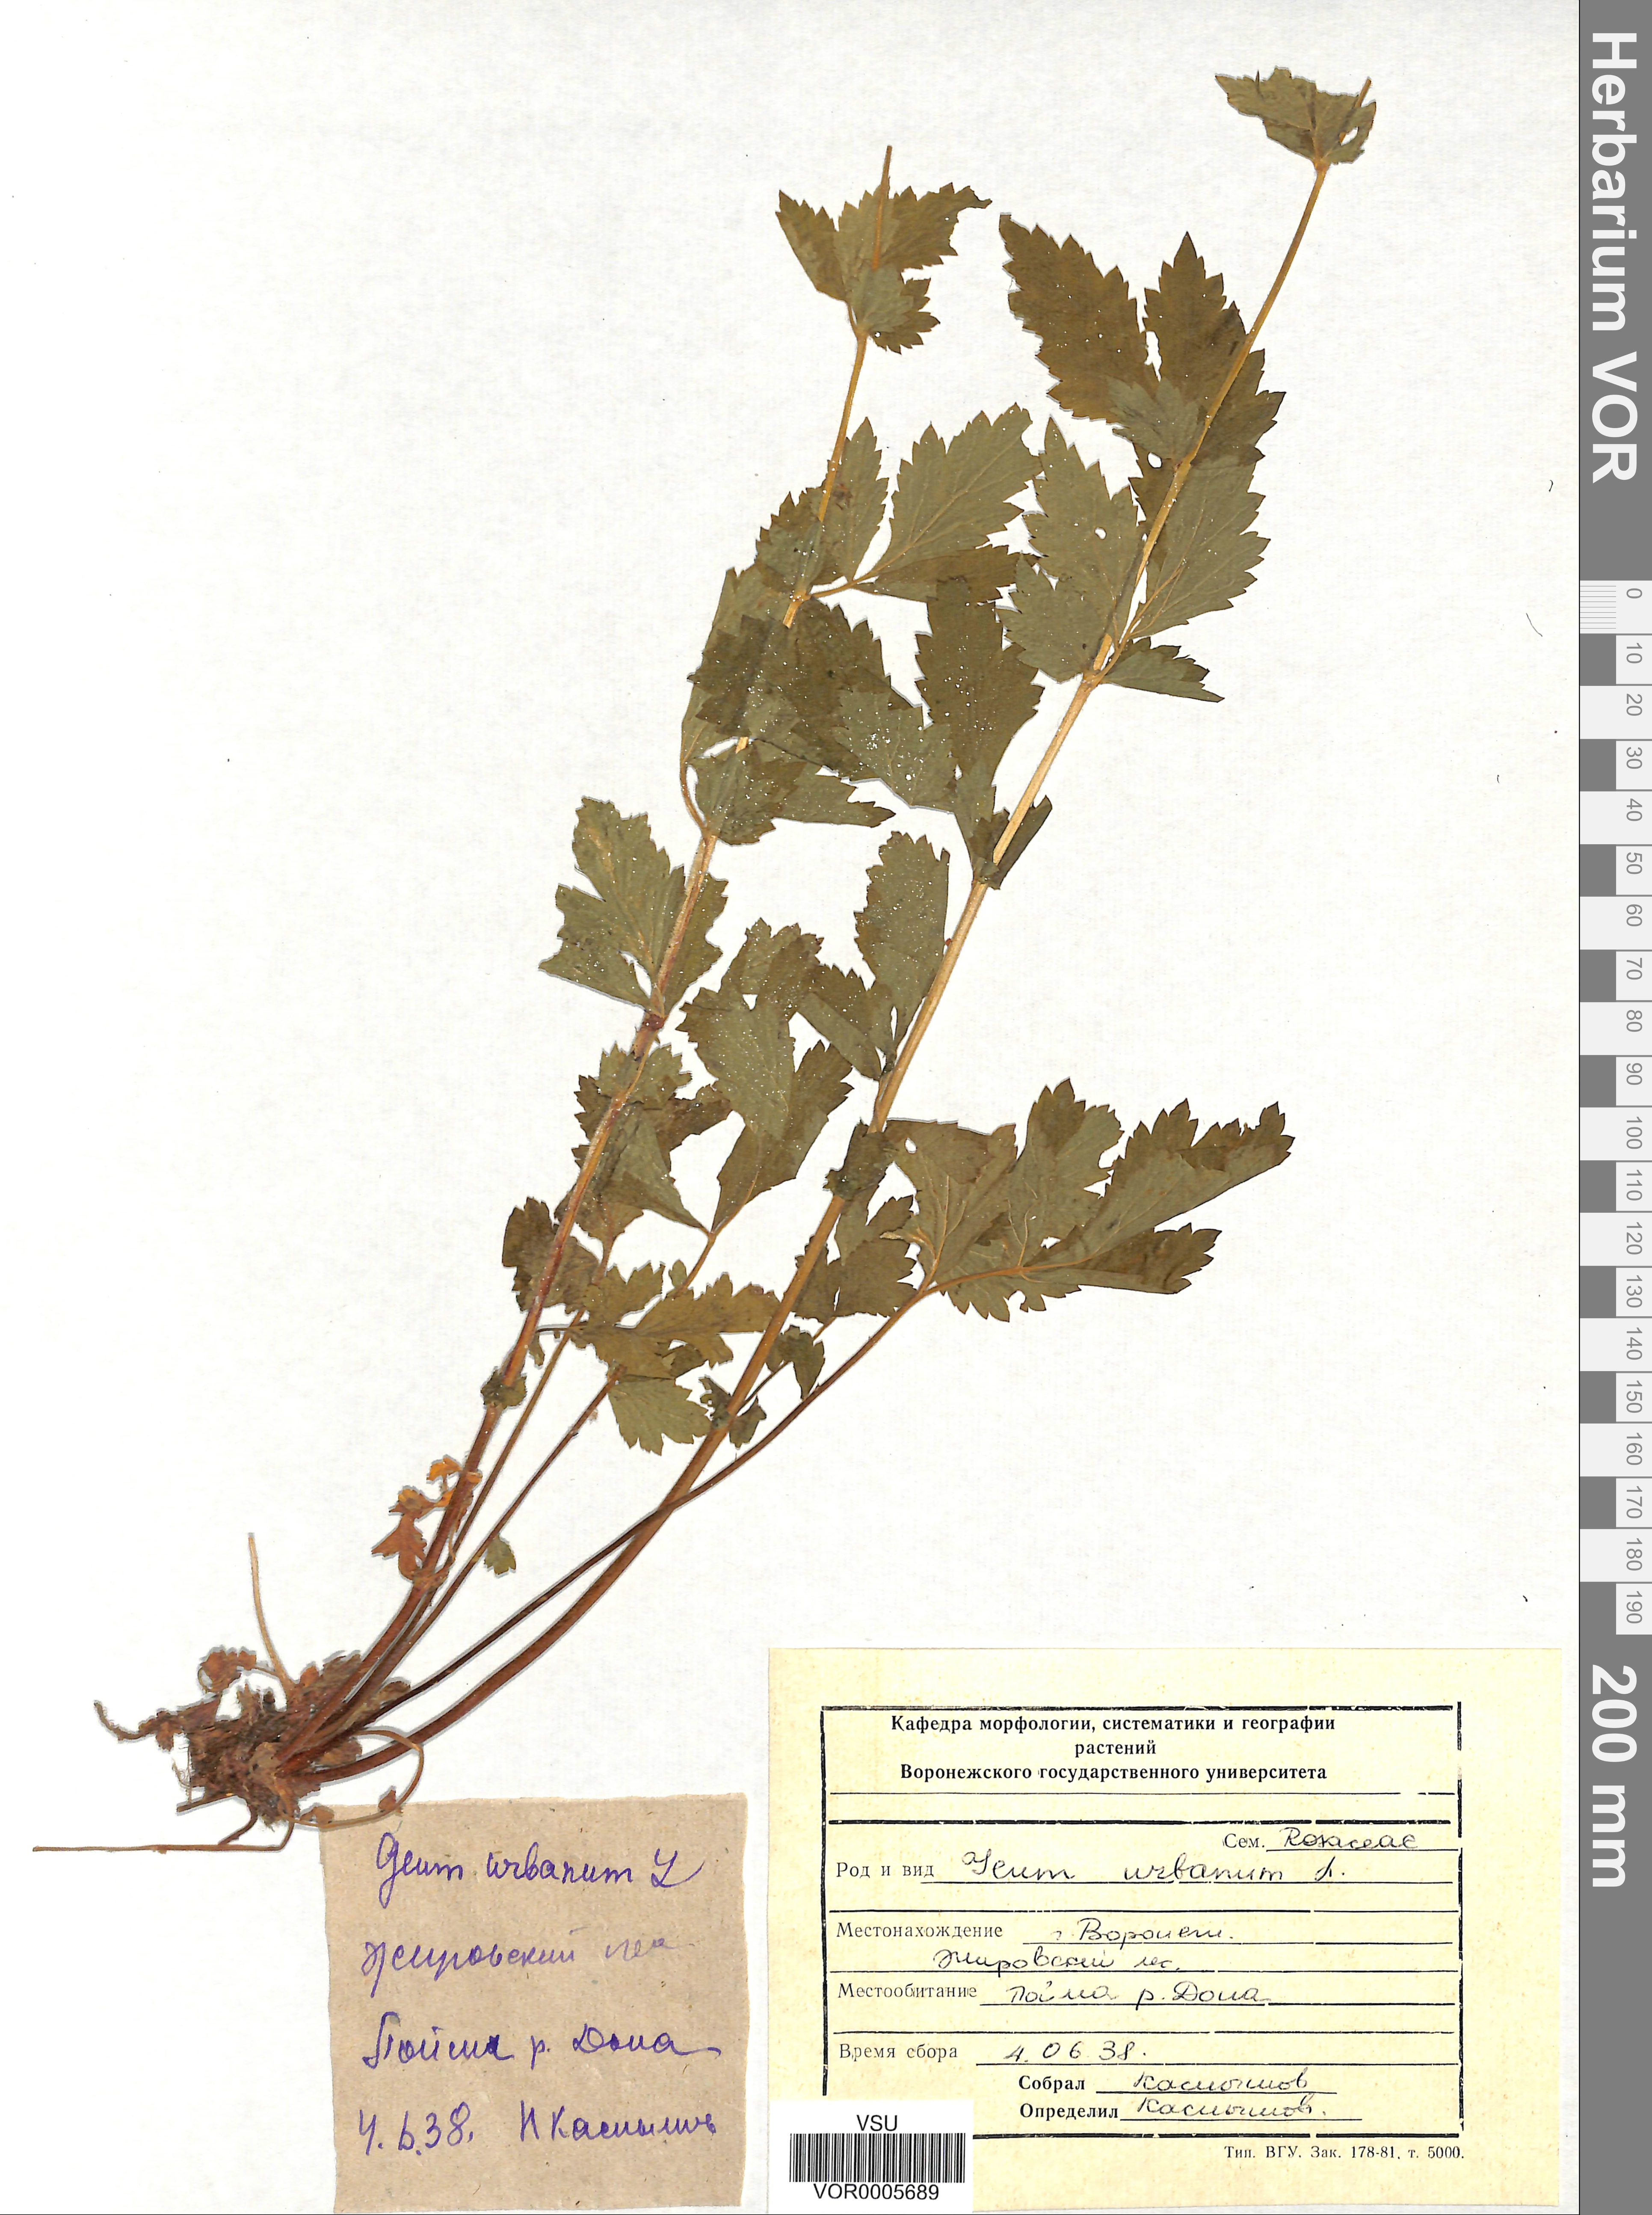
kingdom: Plantae
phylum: Tracheophyta
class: Magnoliopsida
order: Rosales
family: Rosaceae
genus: Geum
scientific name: Geum urbanum
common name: Wood avens
